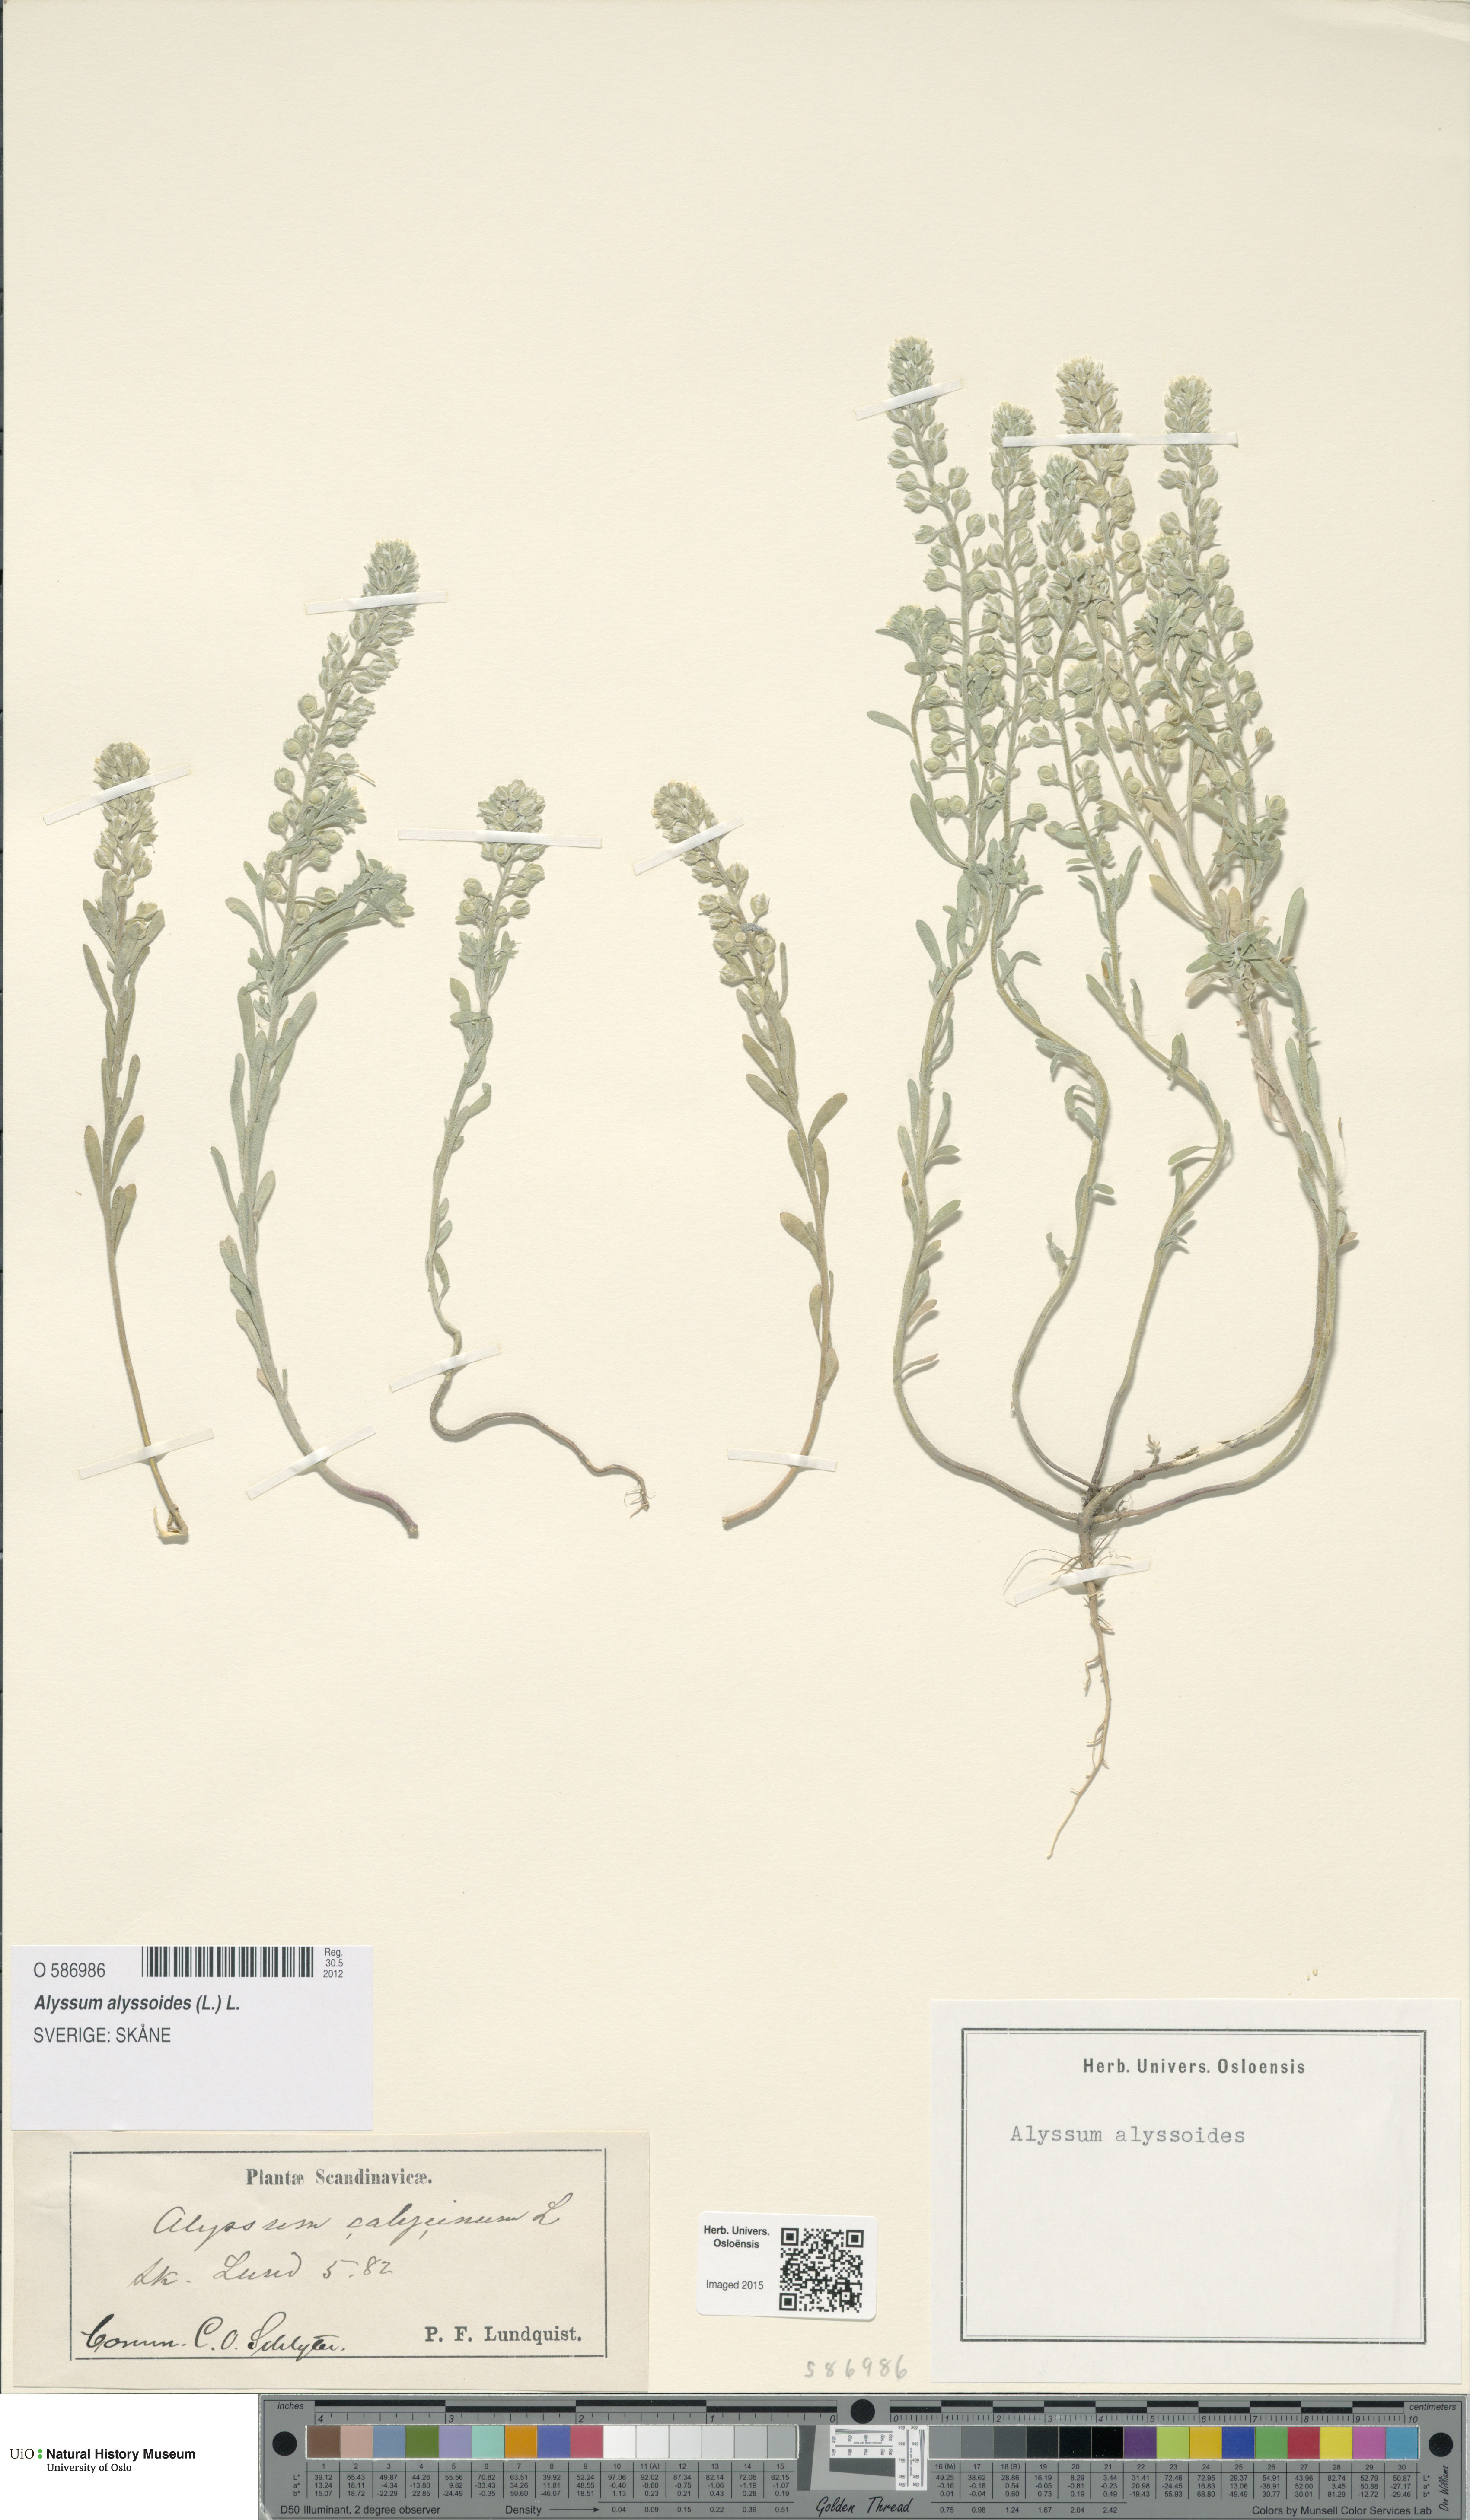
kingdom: Plantae
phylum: Tracheophyta
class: Magnoliopsida
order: Brassicales
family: Brassicaceae
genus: Alyssum
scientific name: Alyssum alyssoides
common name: Small alison
